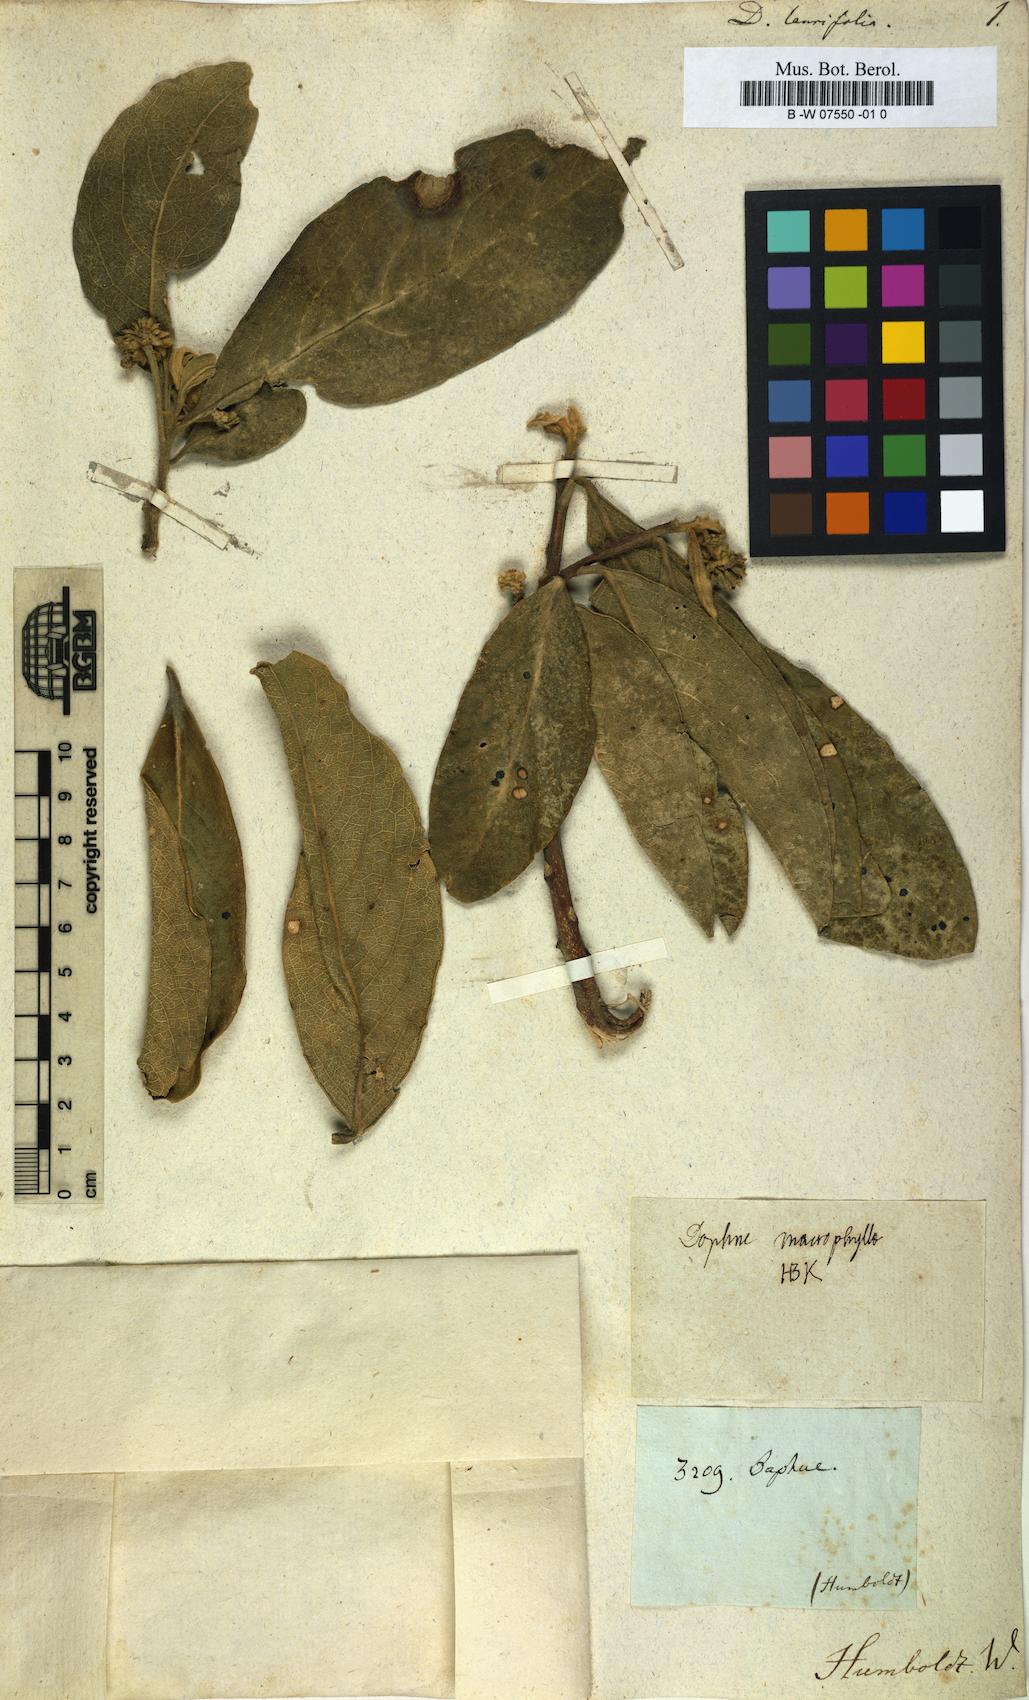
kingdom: Plantae
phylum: Tracheophyta
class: Magnoliopsida
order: Malvales
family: Thymelaeaceae
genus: Daphnopsis
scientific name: Daphnopsis macrophylla
